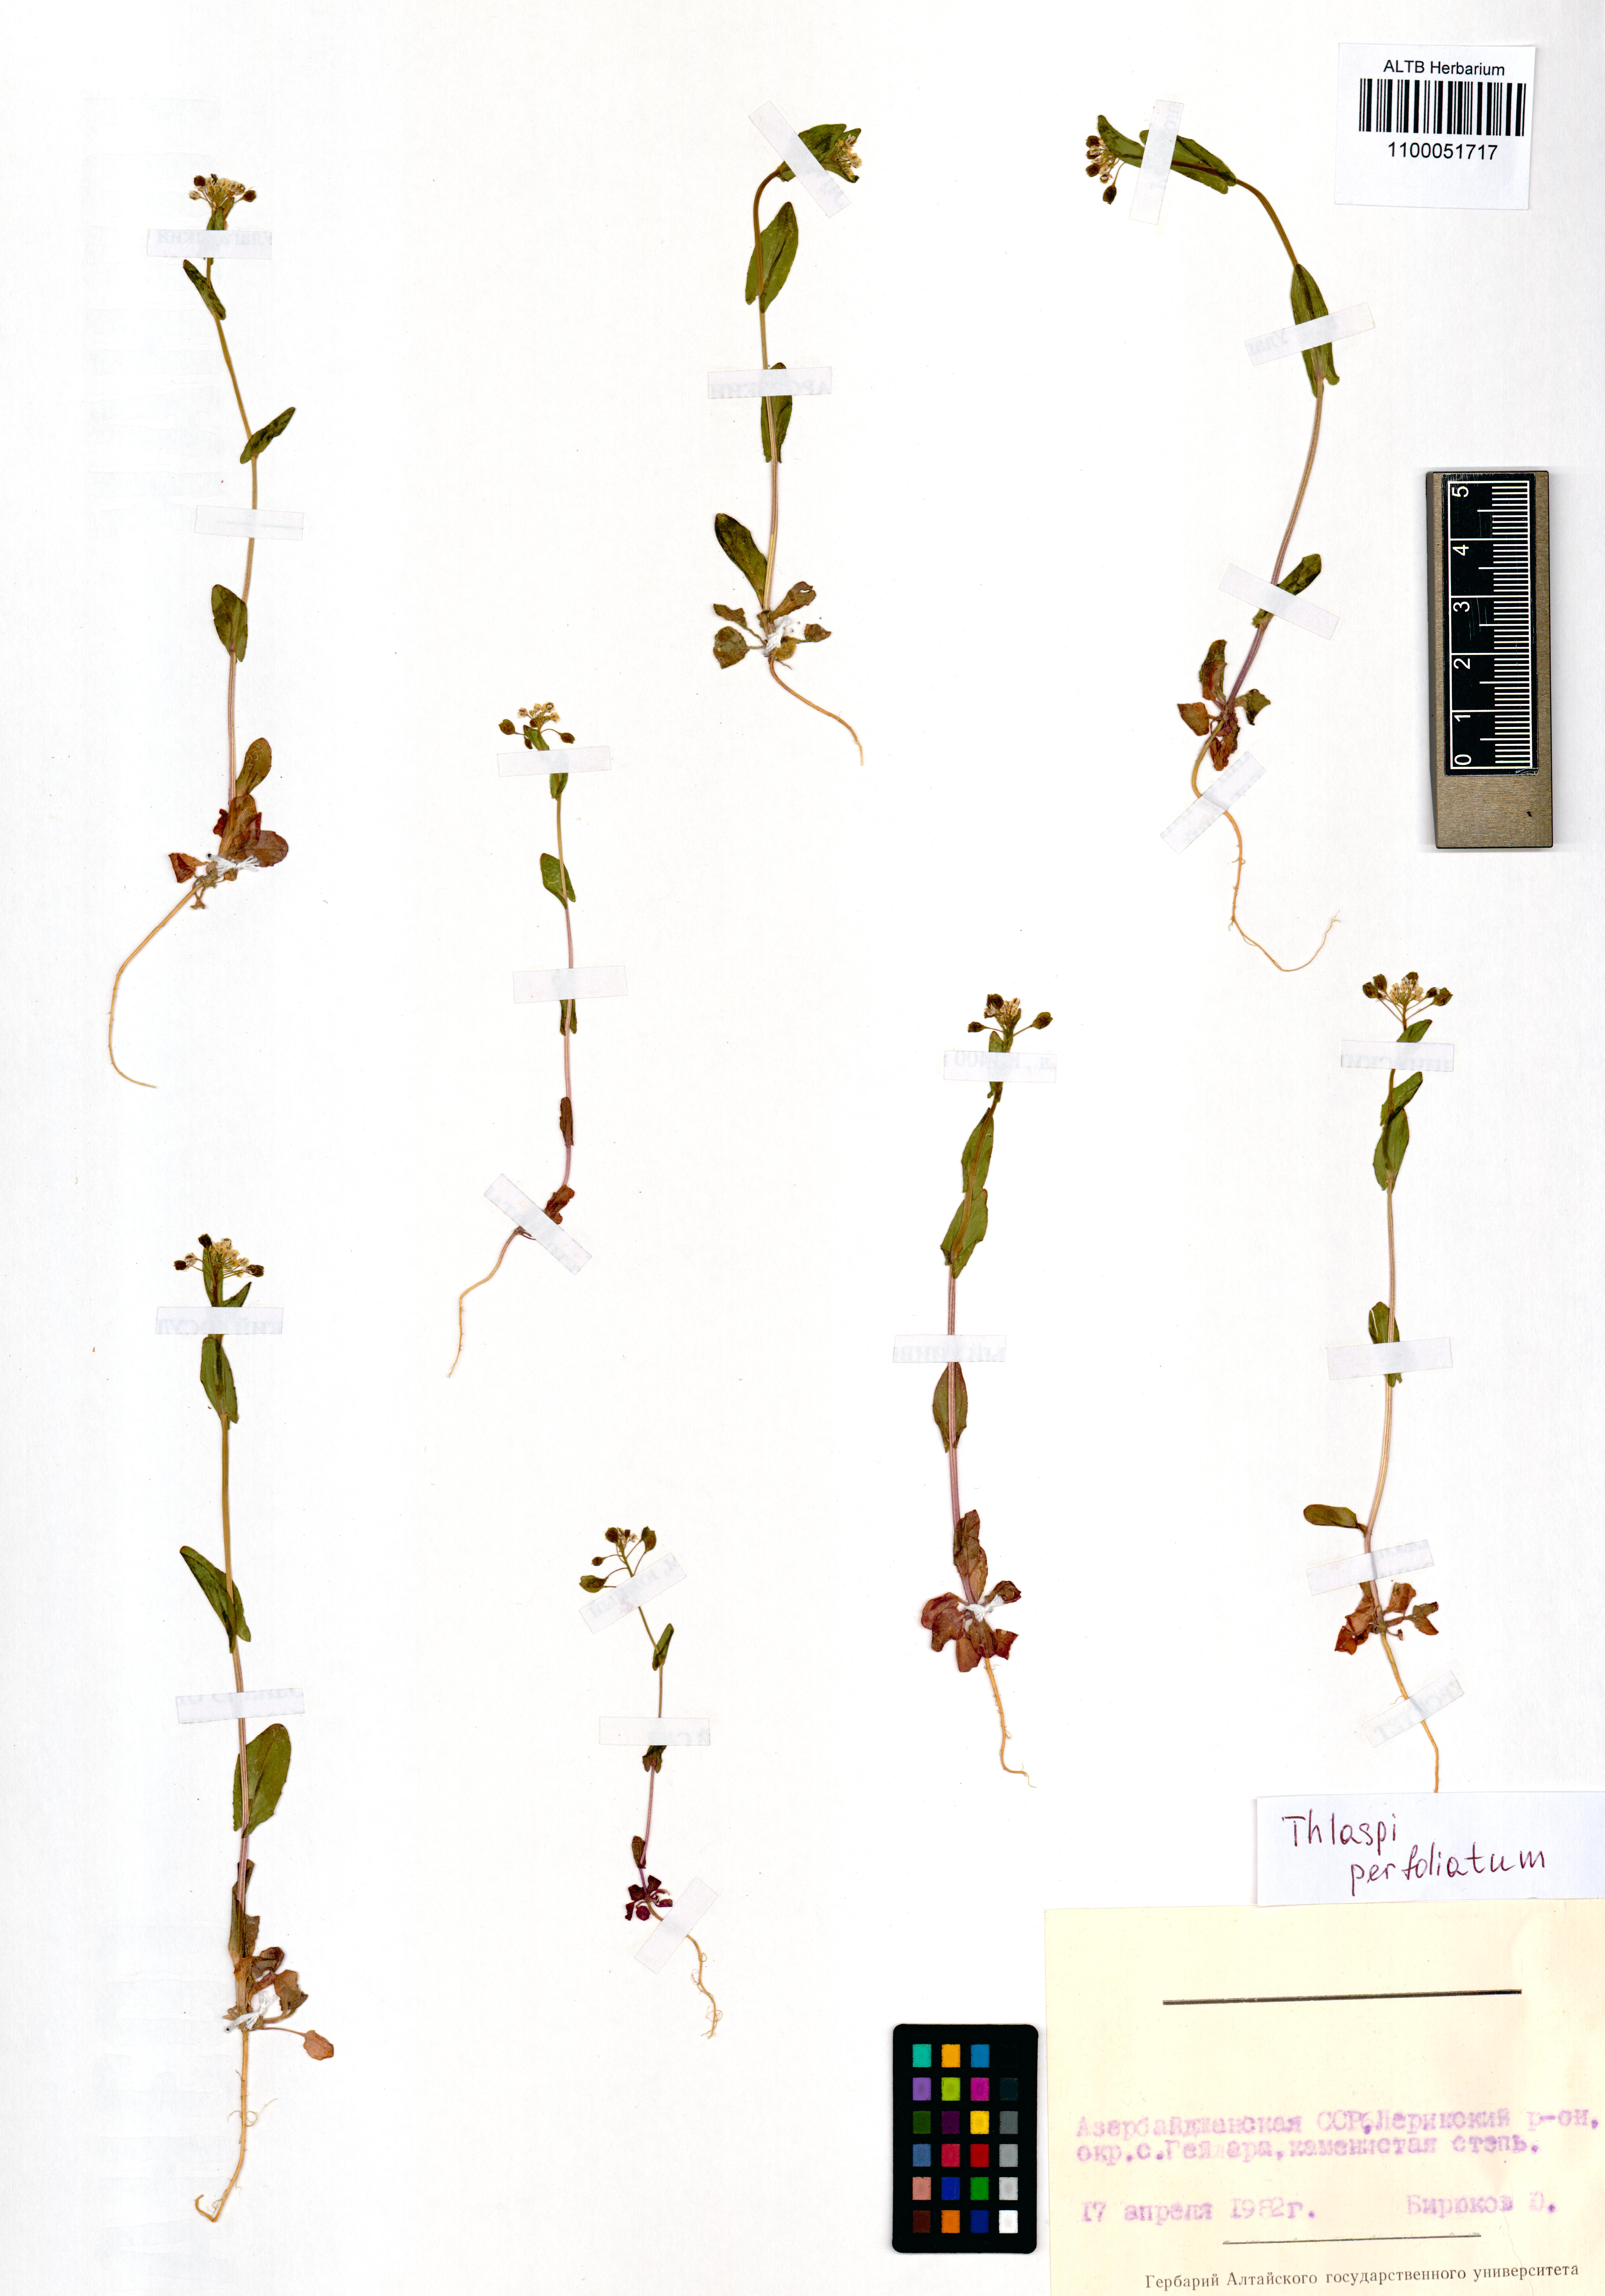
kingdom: Plantae
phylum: Tracheophyta
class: Magnoliopsida
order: Brassicales
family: Brassicaceae
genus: Noccaea
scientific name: Noccaea perfoliata
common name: Perfoliate pennycress
